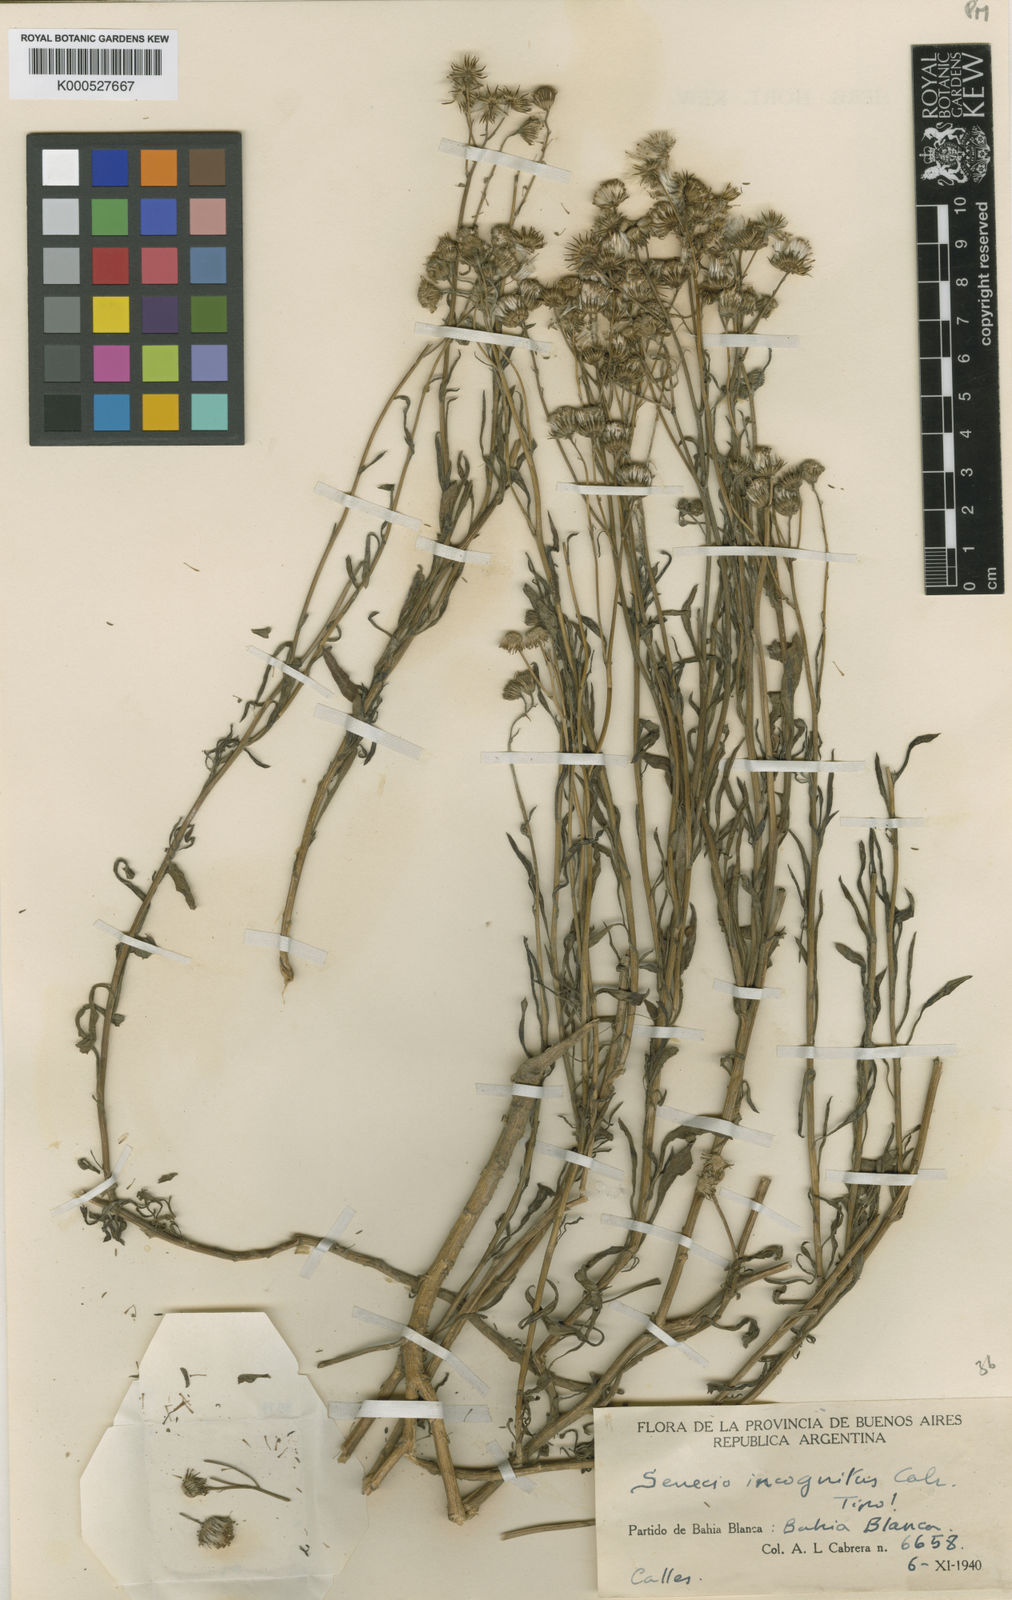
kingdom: Plantae
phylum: Tracheophyta
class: Magnoliopsida
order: Asterales
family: Asteraceae
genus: Senecio
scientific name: Senecio madagascariensis
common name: Madagascar ragwort
